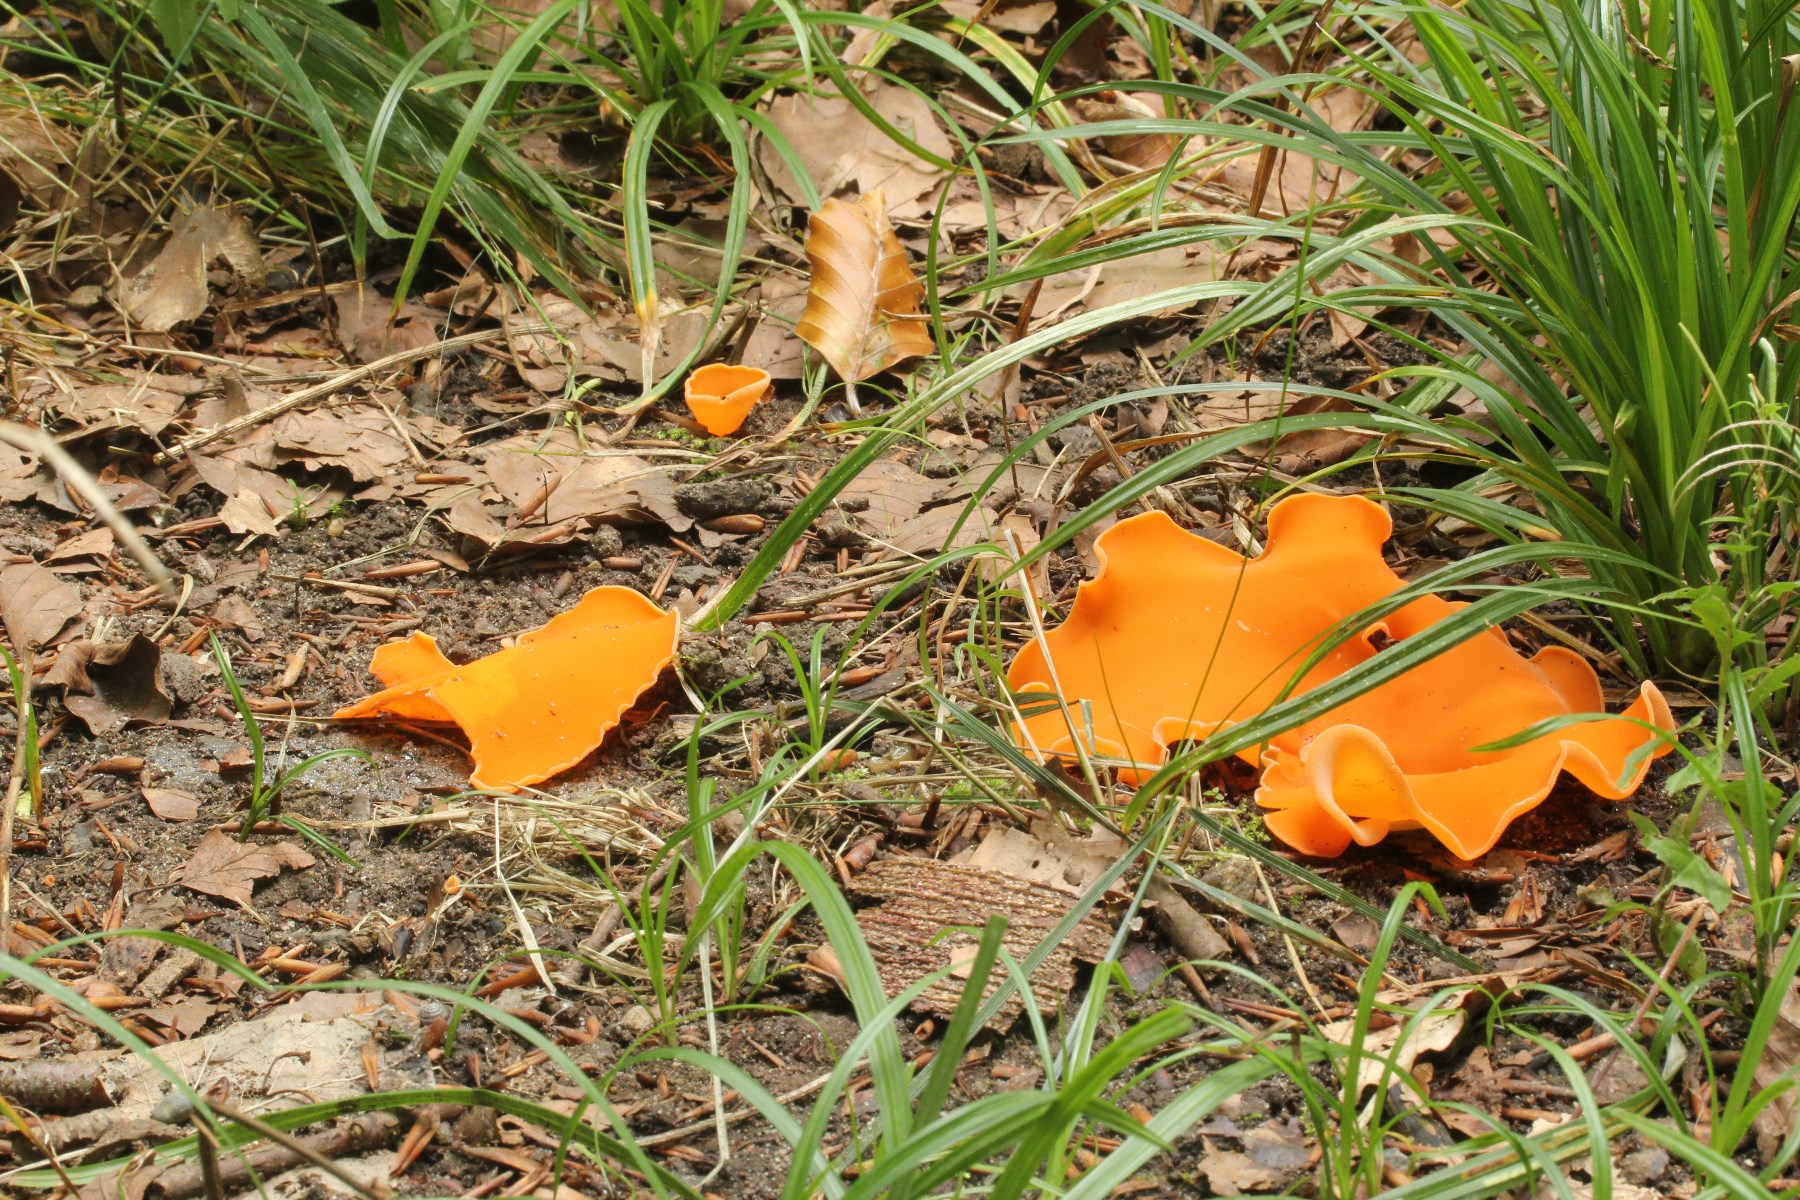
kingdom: Fungi
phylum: Ascomycota
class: Pezizomycetes
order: Pezizales
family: Pyronemataceae
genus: Aleuria
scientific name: Aleuria aurantia
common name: almindelig orangebæger
